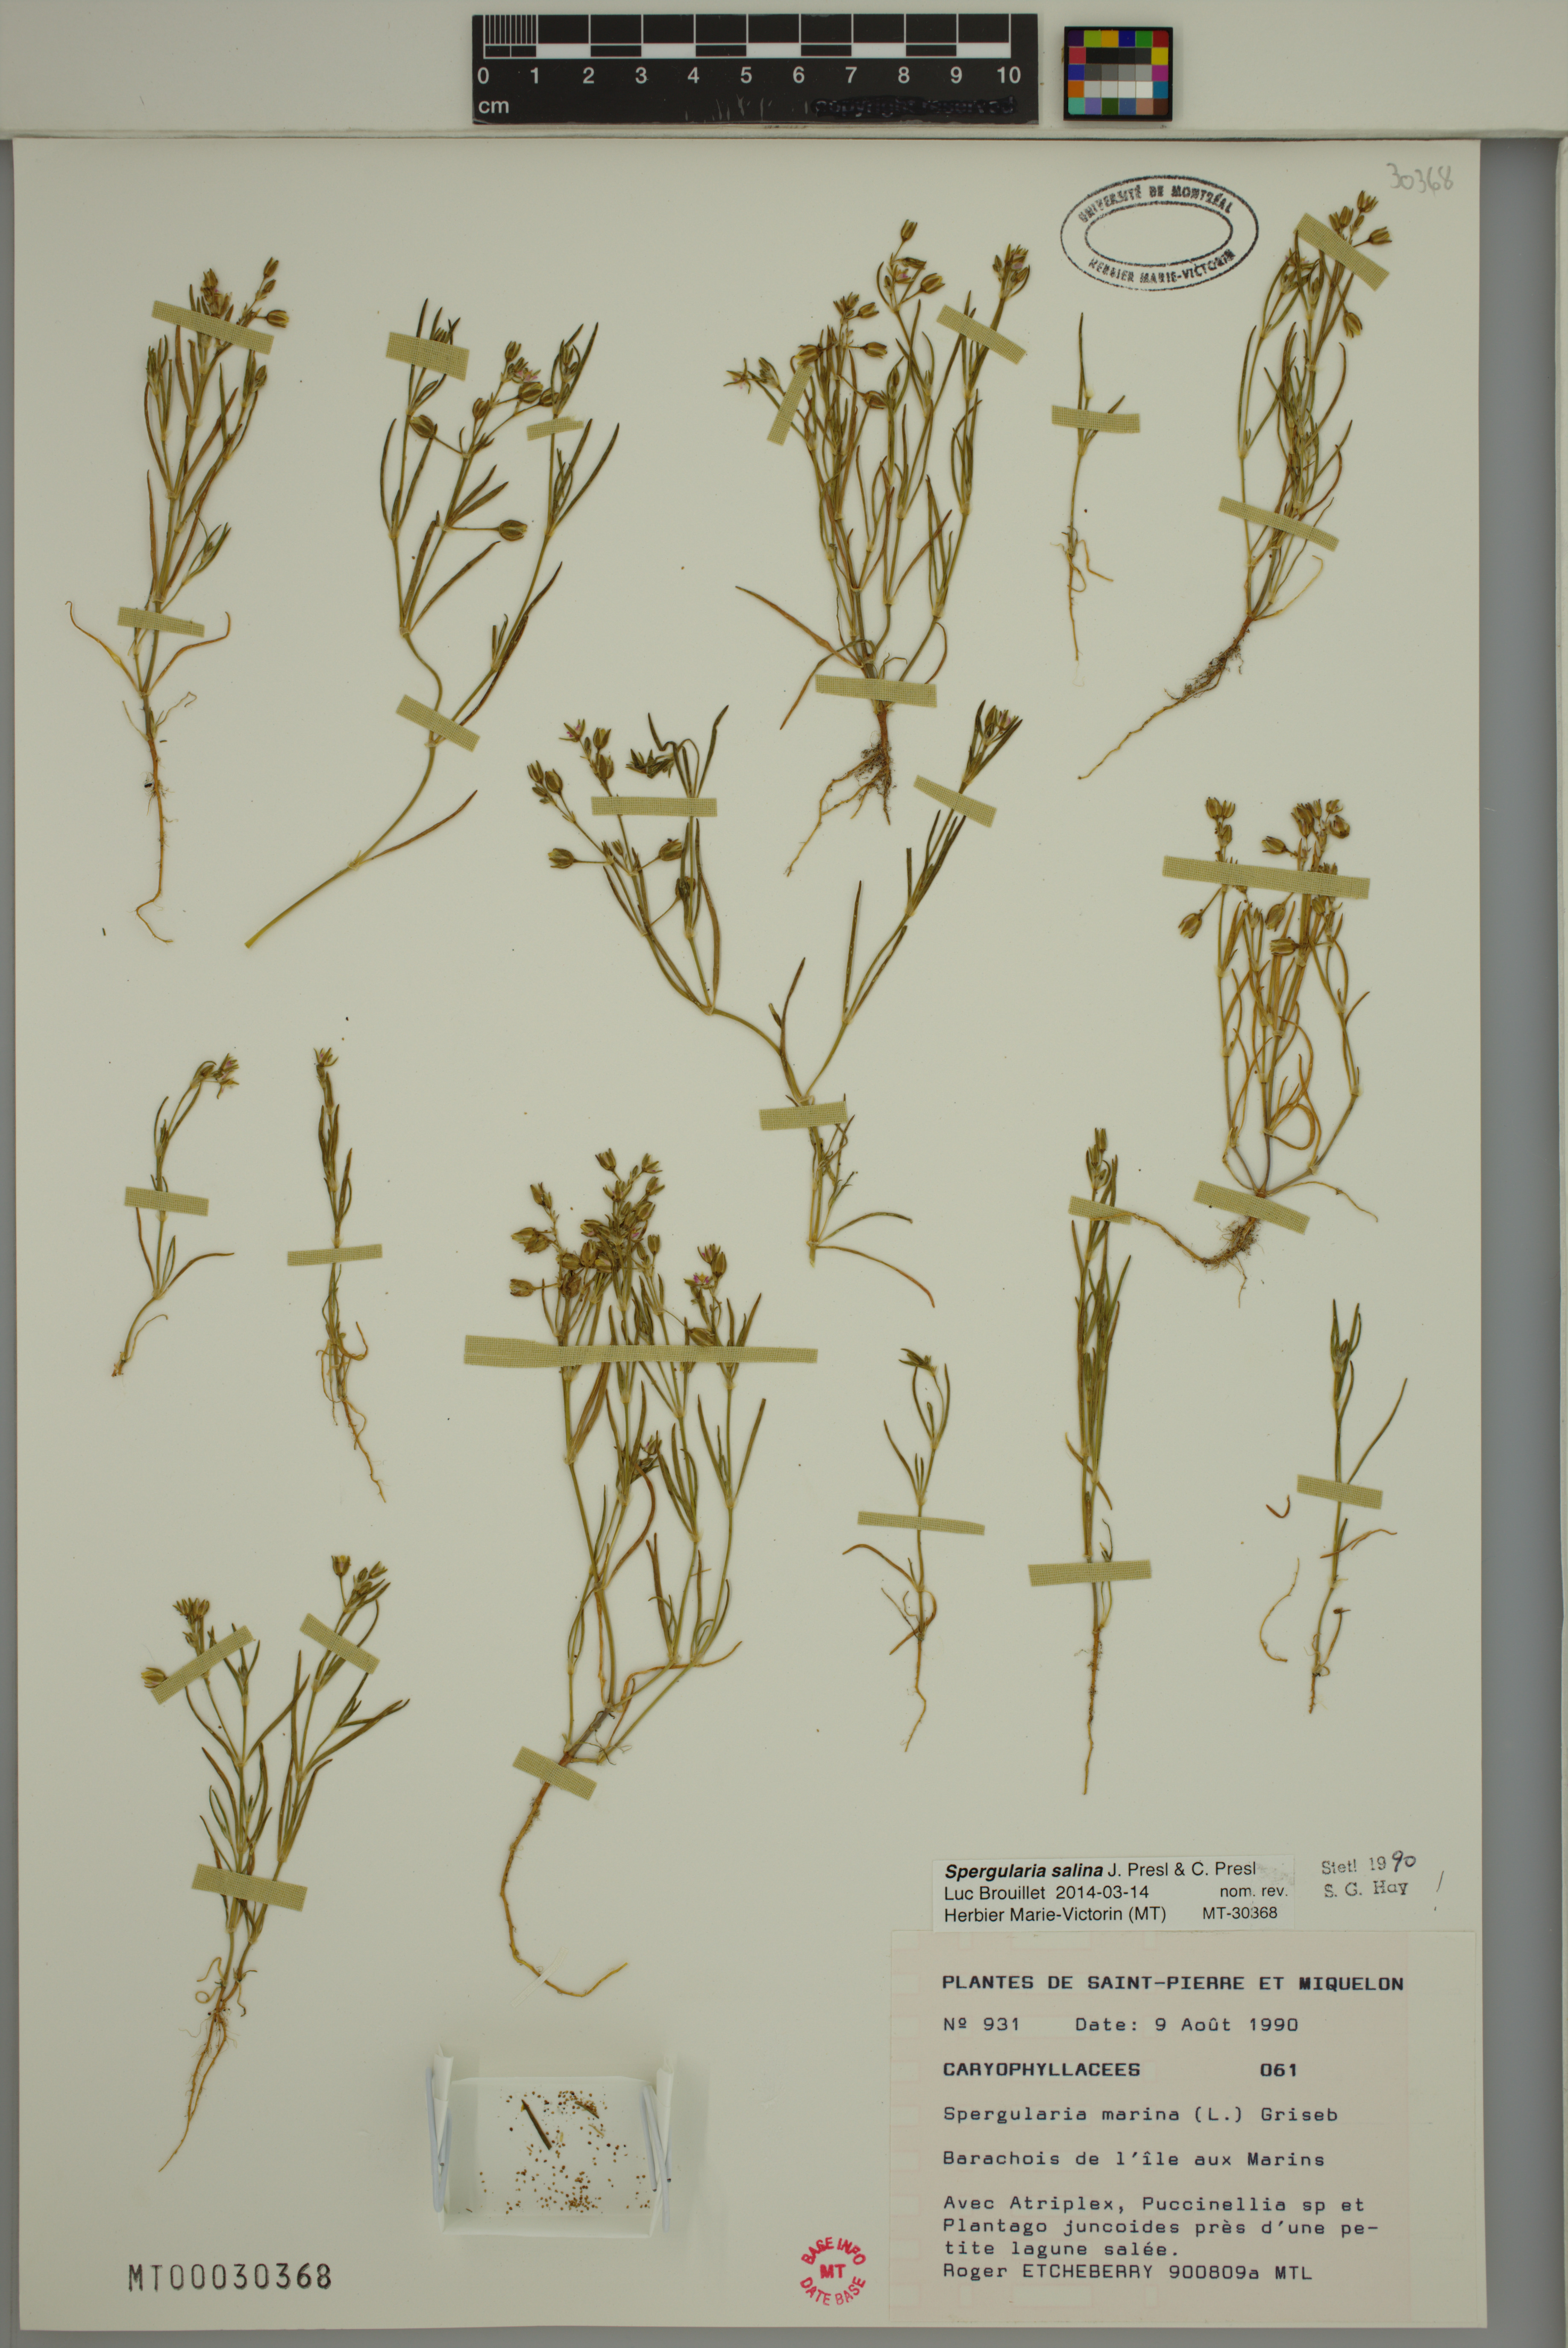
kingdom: Plantae
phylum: Tracheophyta
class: Magnoliopsida
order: Caryophyllales
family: Caryophyllaceae
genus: Spergularia
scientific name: Spergularia marina
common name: Lesser sea-spurrey
